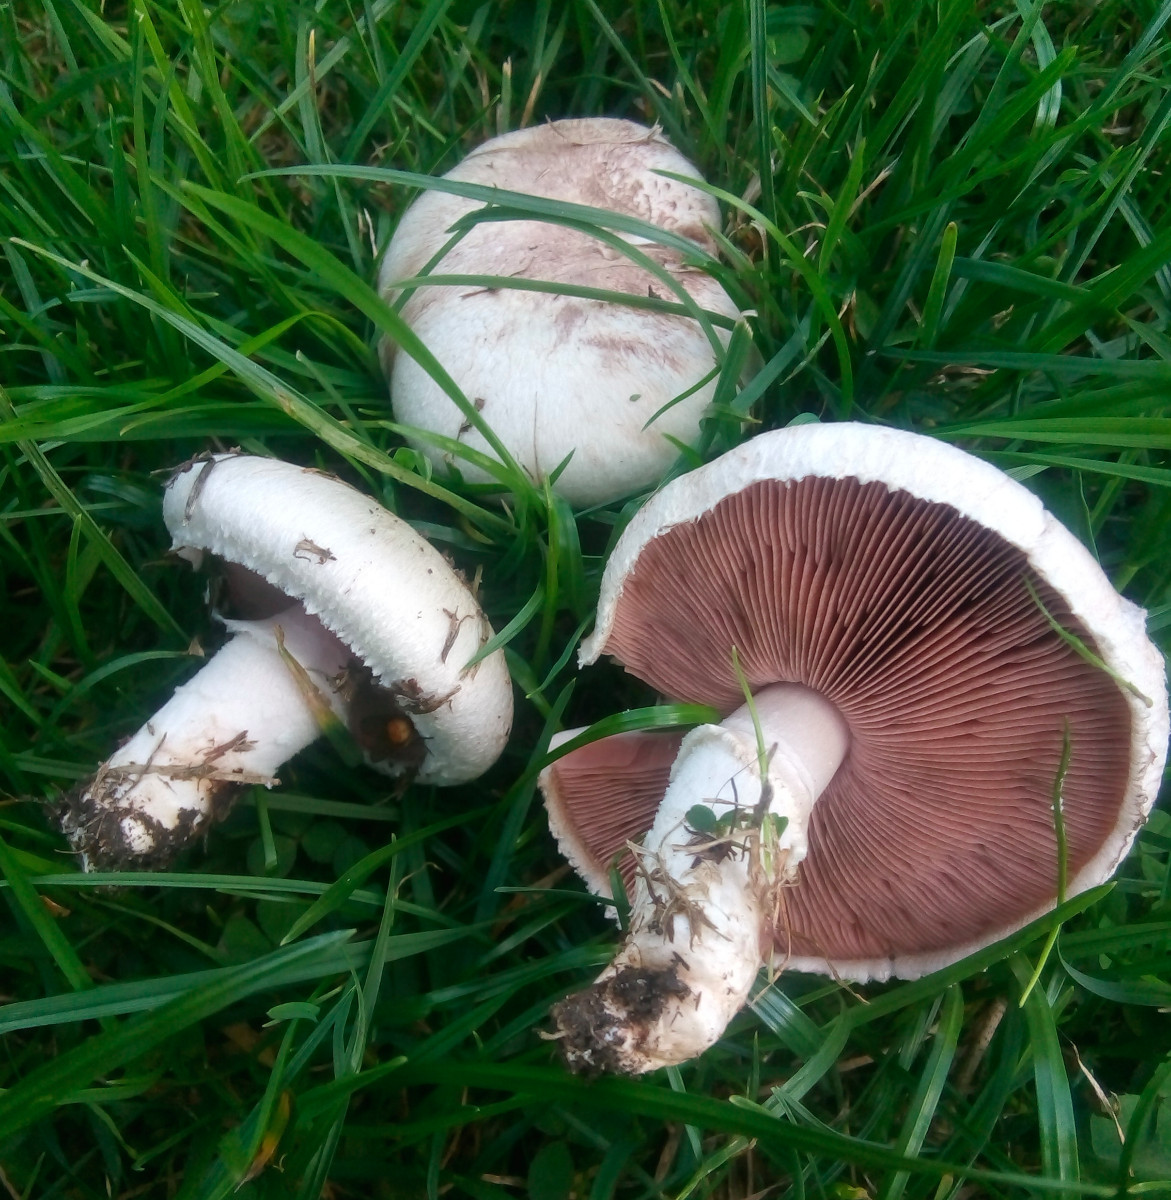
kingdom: Fungi
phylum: Basidiomycota
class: Agaricomycetes
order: Agaricales
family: Agaricaceae
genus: Agaricus
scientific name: Agaricus campestris
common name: mark-champignon
